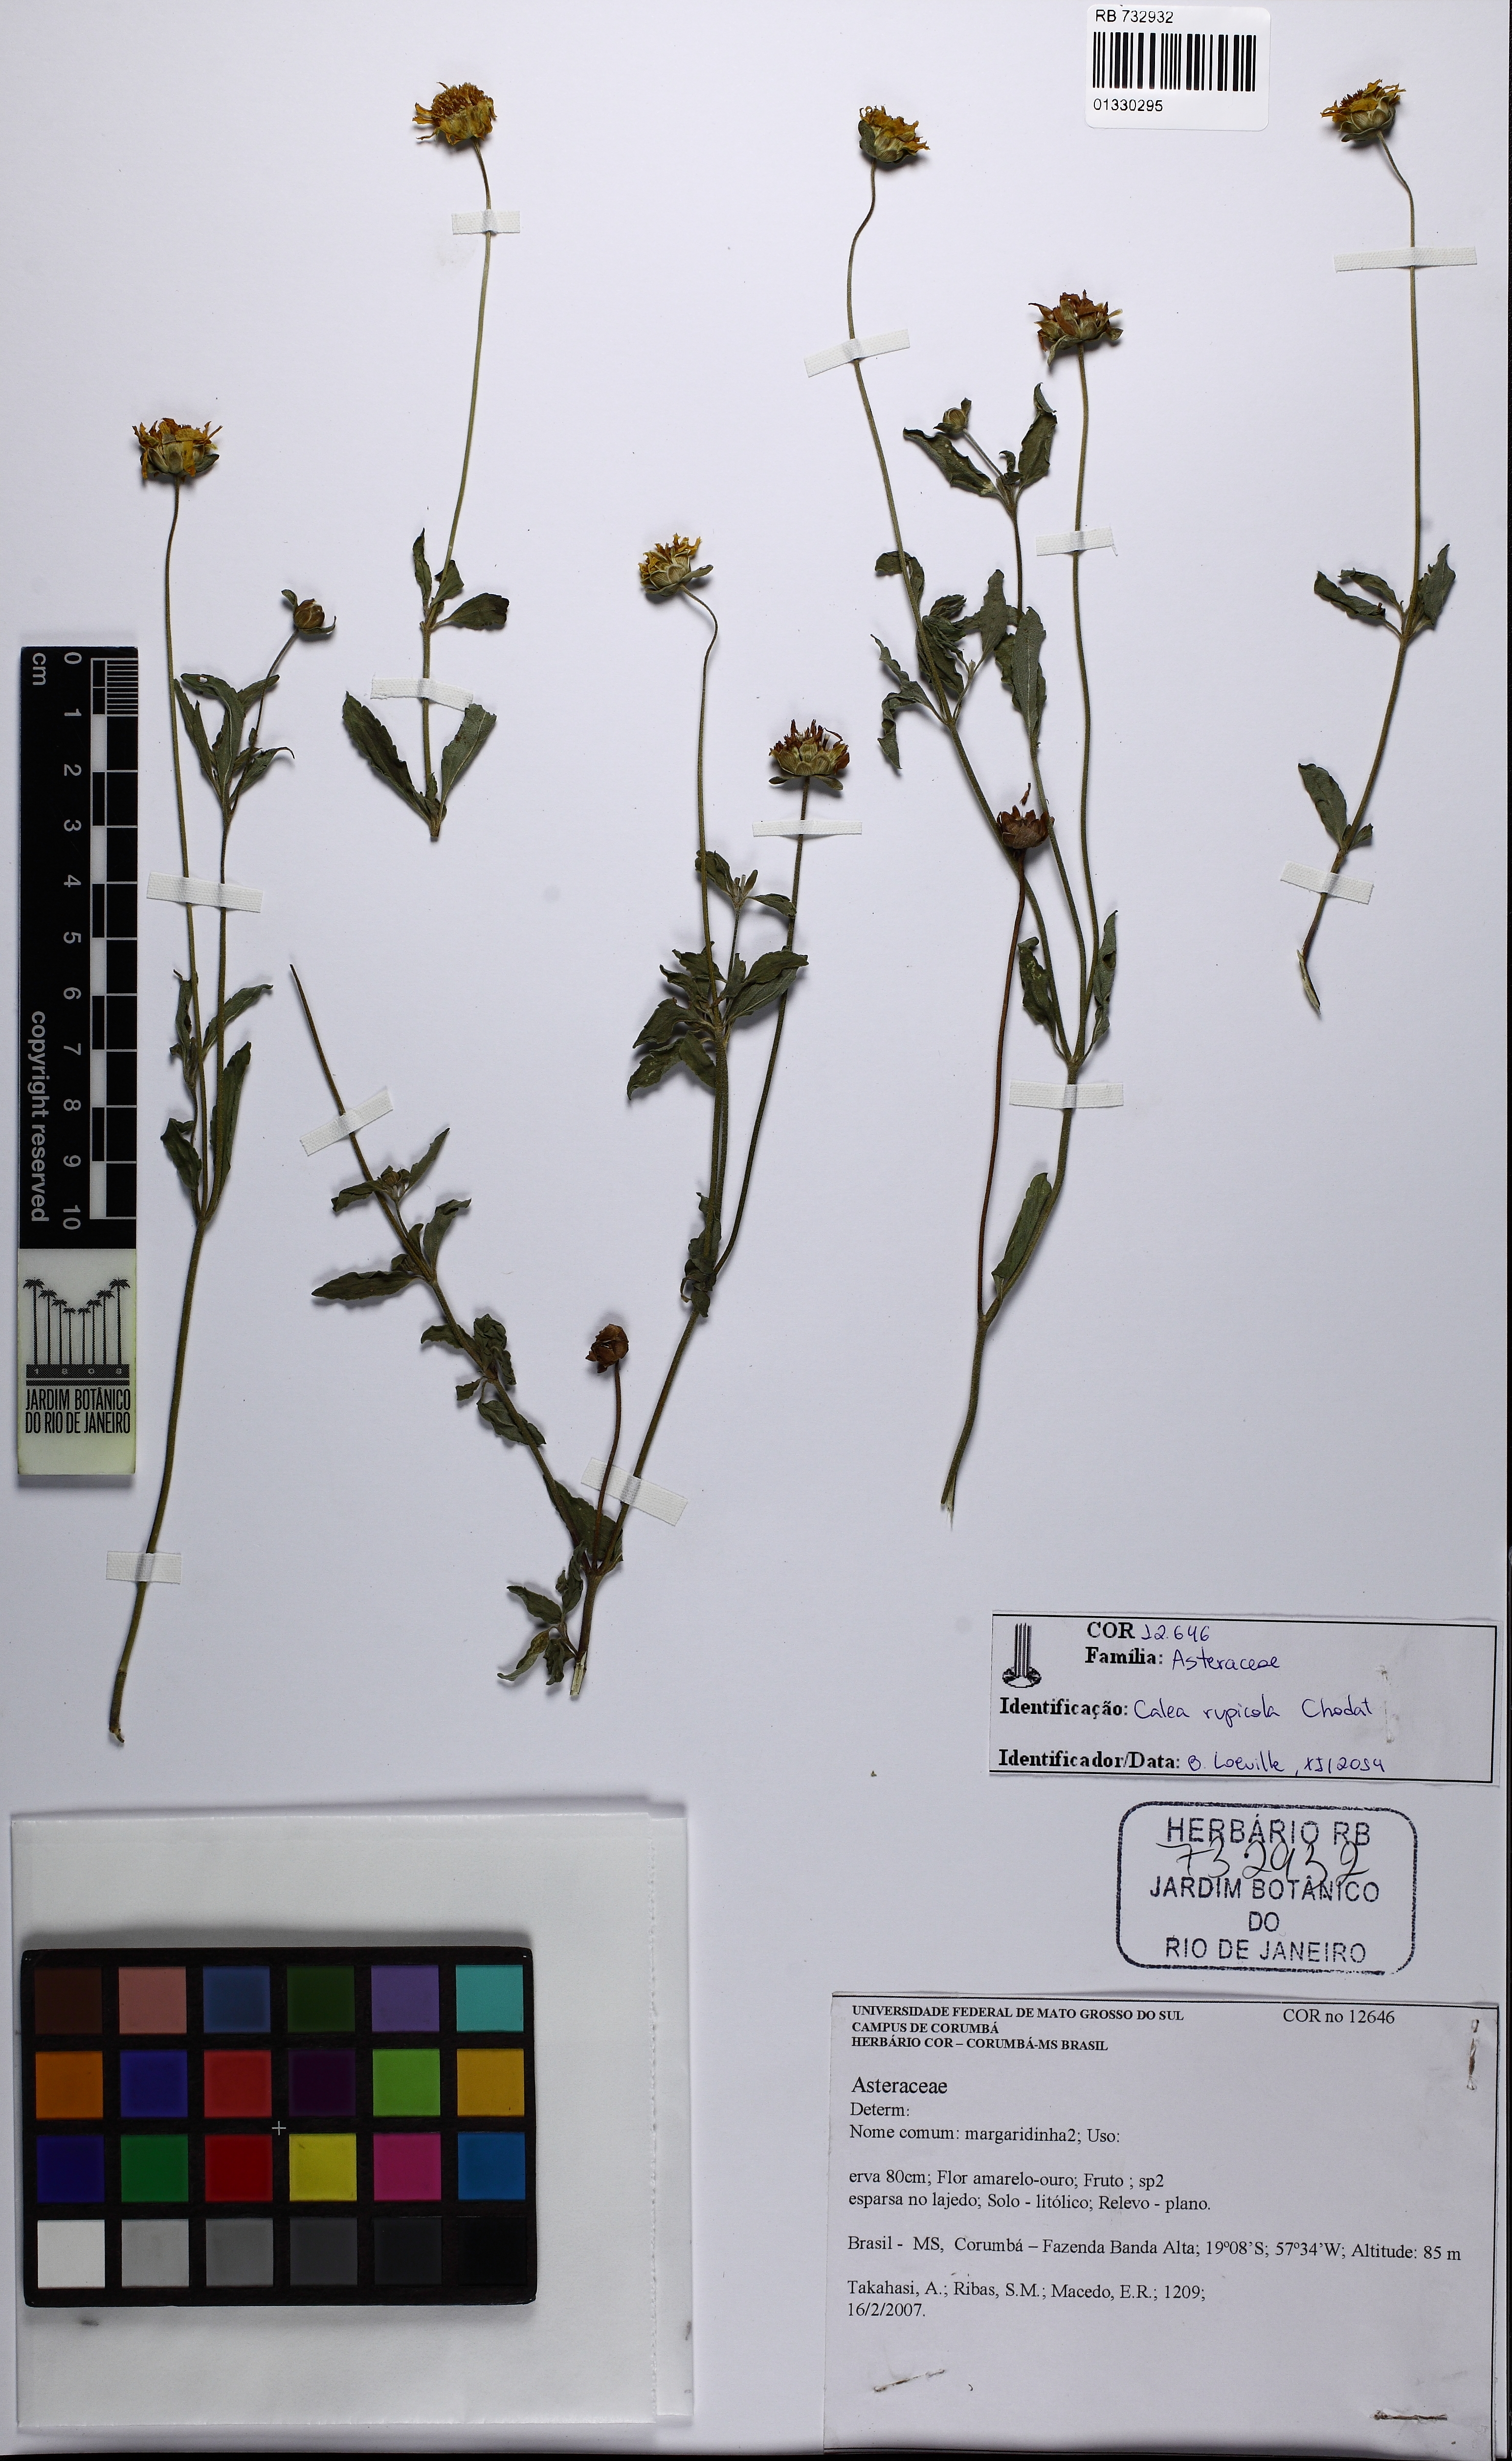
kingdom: Plantae
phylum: Tracheophyta
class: Magnoliopsida
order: Asterales
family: Asteraceae
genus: Calea
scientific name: Calea rupicola
